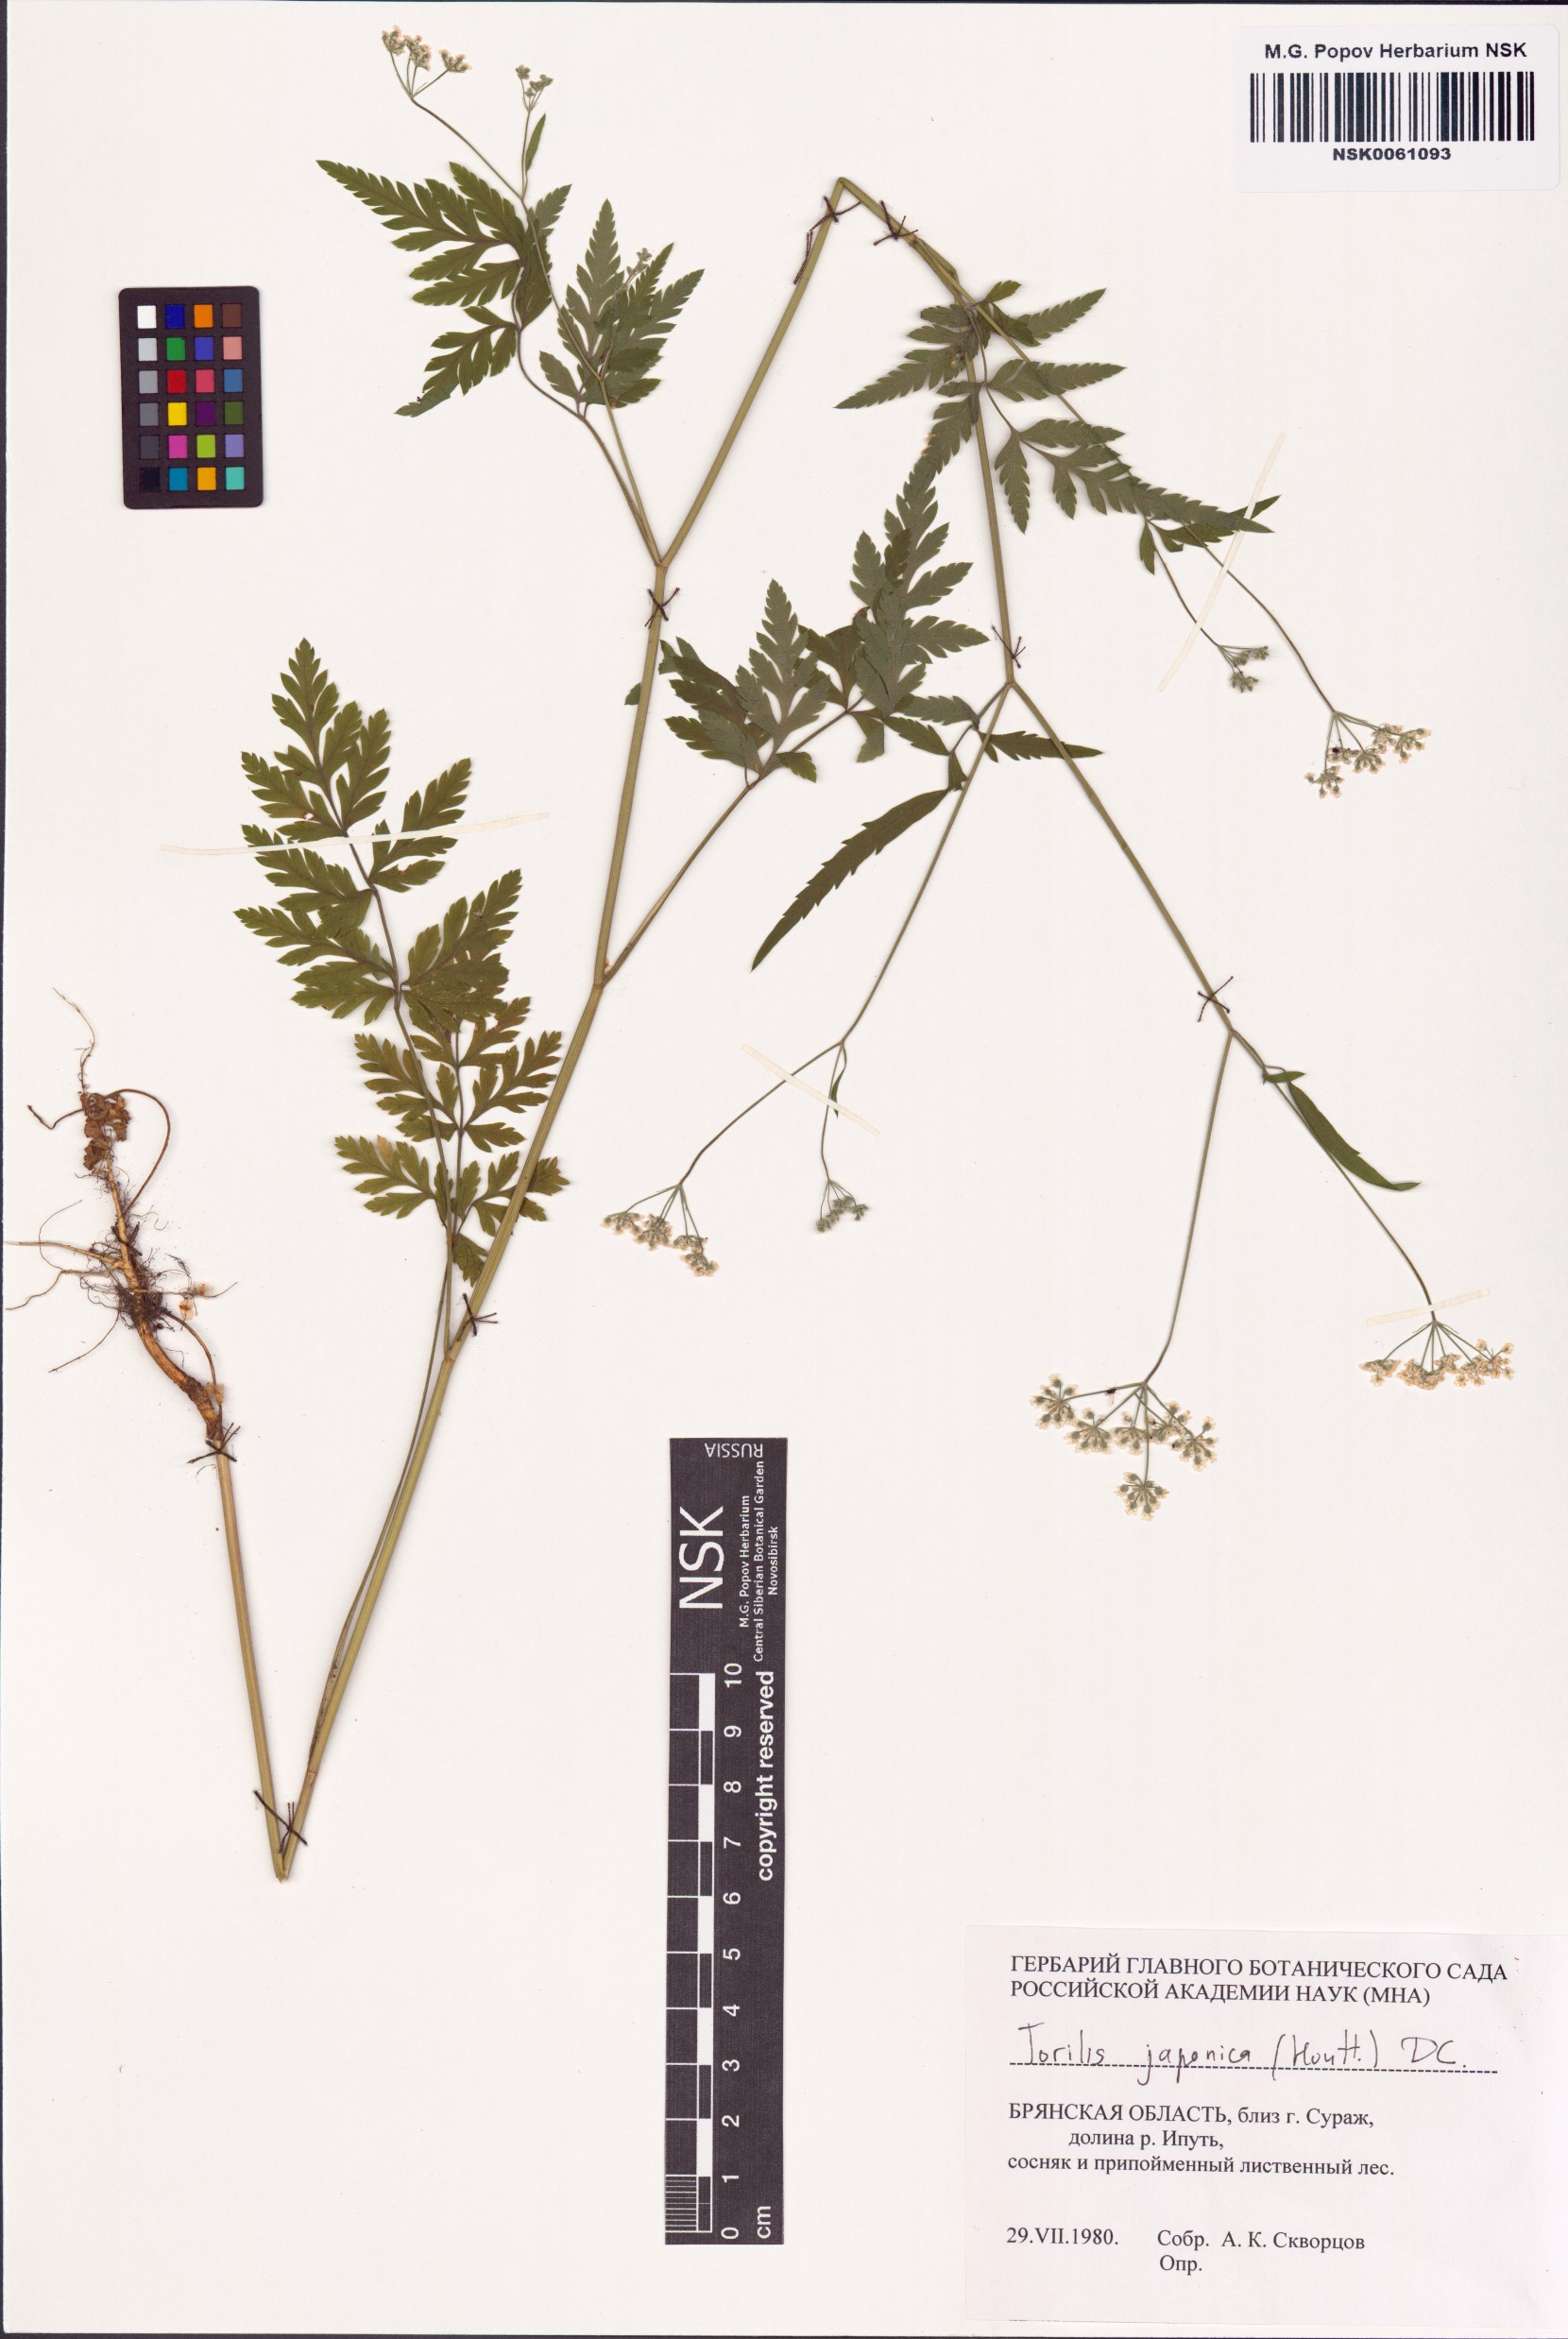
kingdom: Plantae
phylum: Tracheophyta
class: Magnoliopsida
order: Apiales
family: Apiaceae
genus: Torilis
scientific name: Torilis japonica
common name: Upright hedge-parsley
